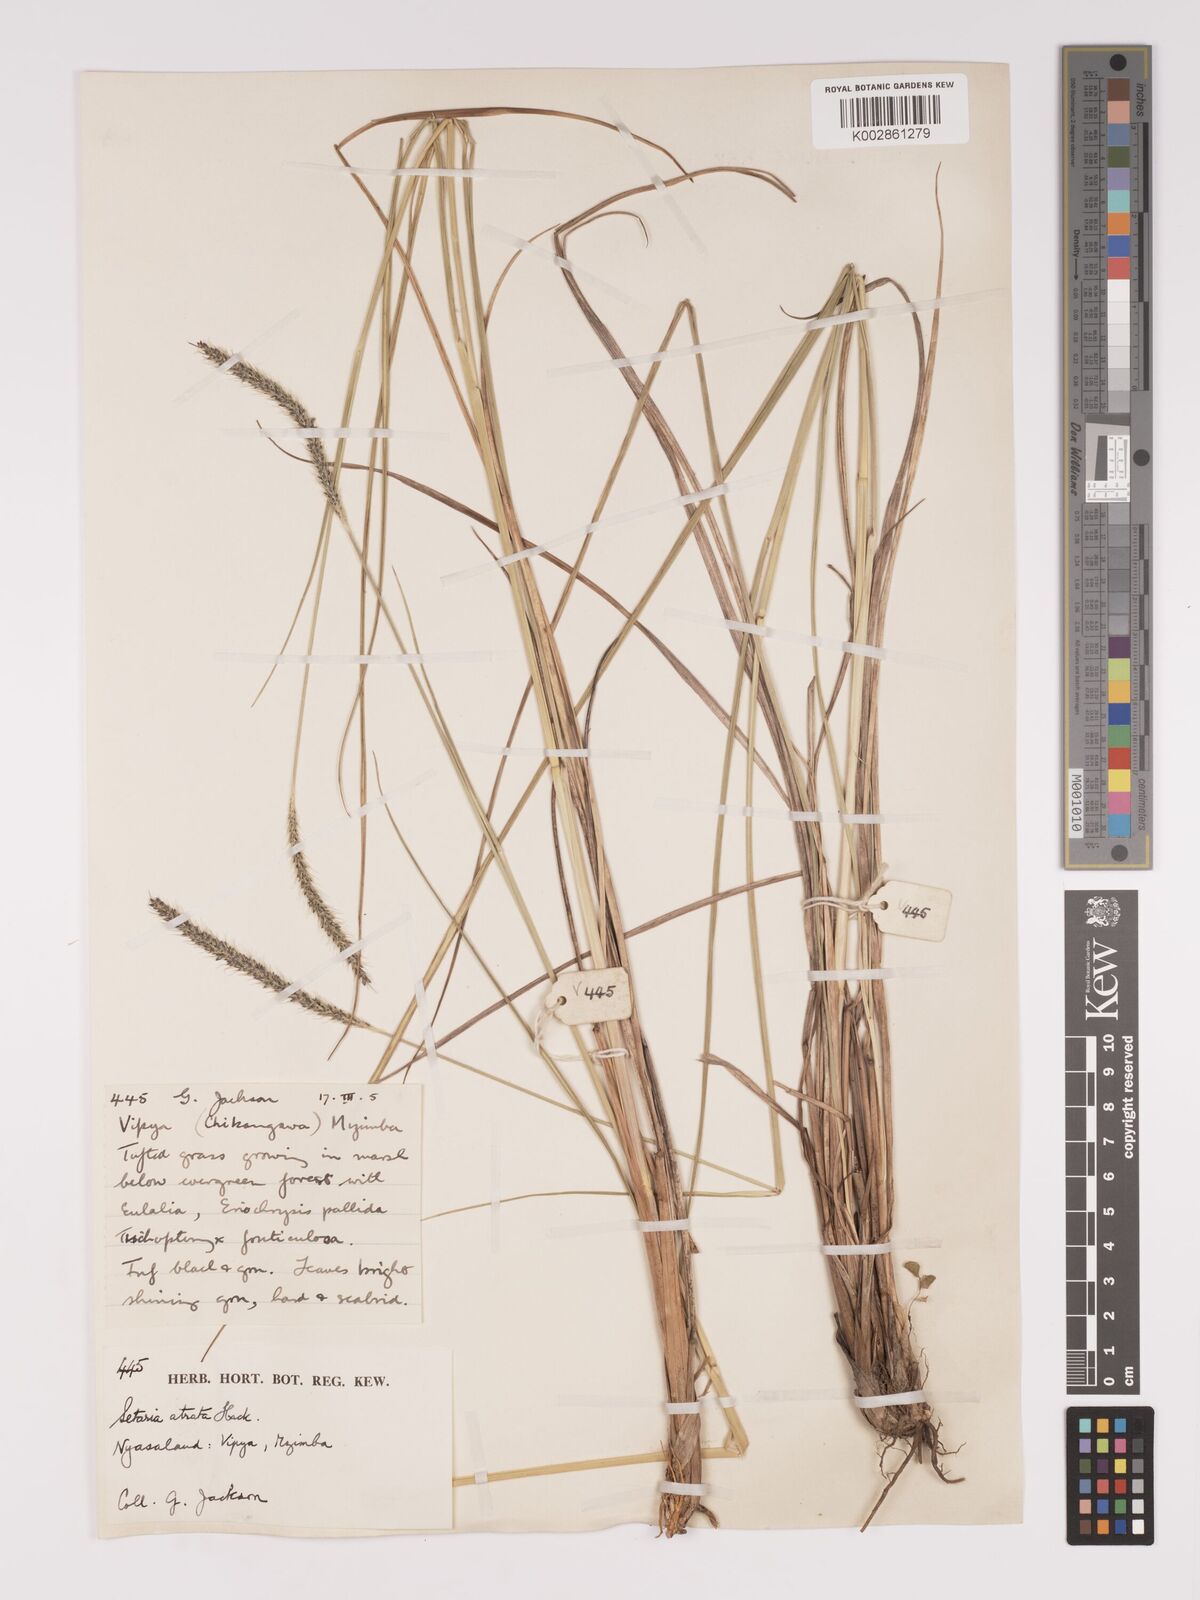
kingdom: Plantae
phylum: Tracheophyta
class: Liliopsida
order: Poales
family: Poaceae
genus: Setaria
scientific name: Setaria atrata
